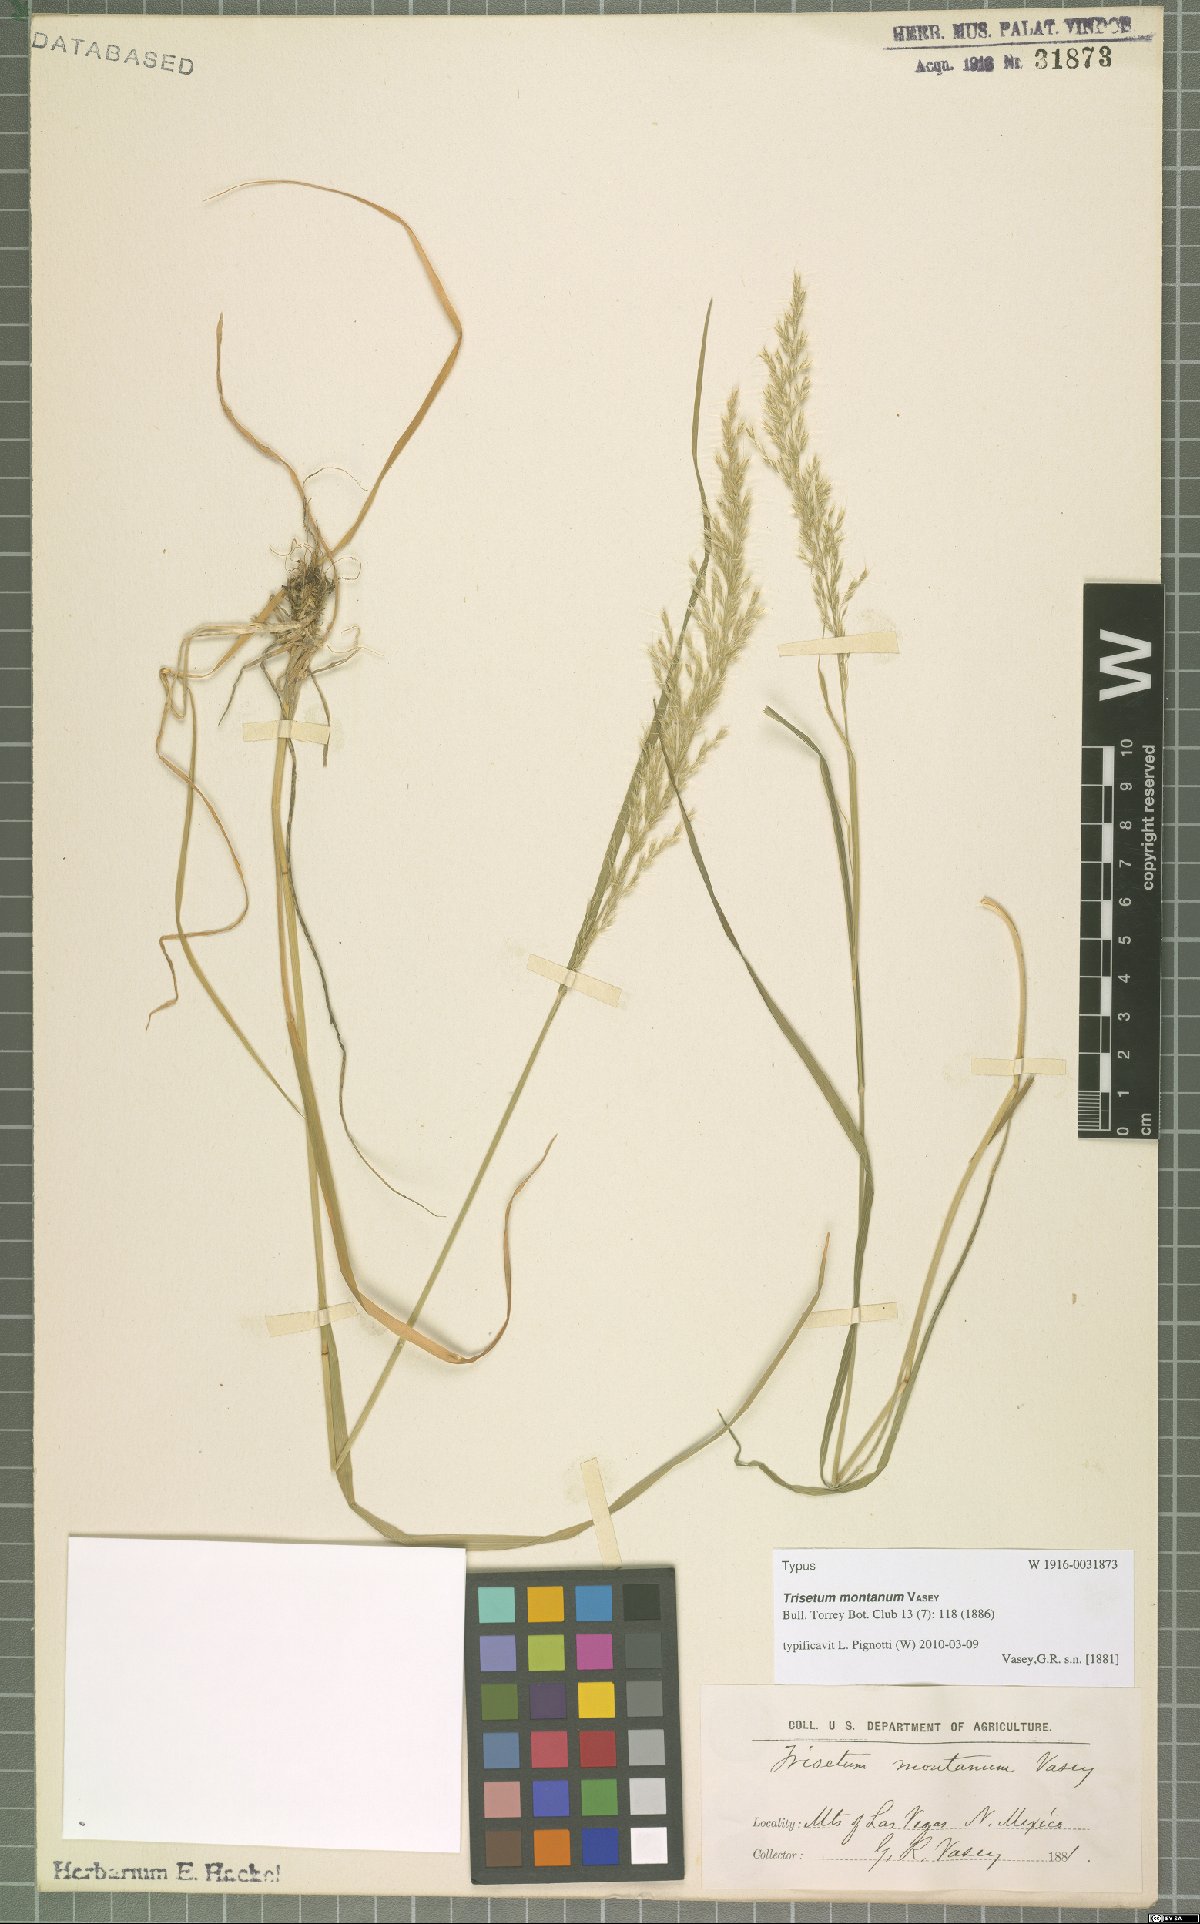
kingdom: Plantae
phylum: Tracheophyta
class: Liliopsida
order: Poales
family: Poaceae
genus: Koeleria
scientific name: Koeleria vaseyi
